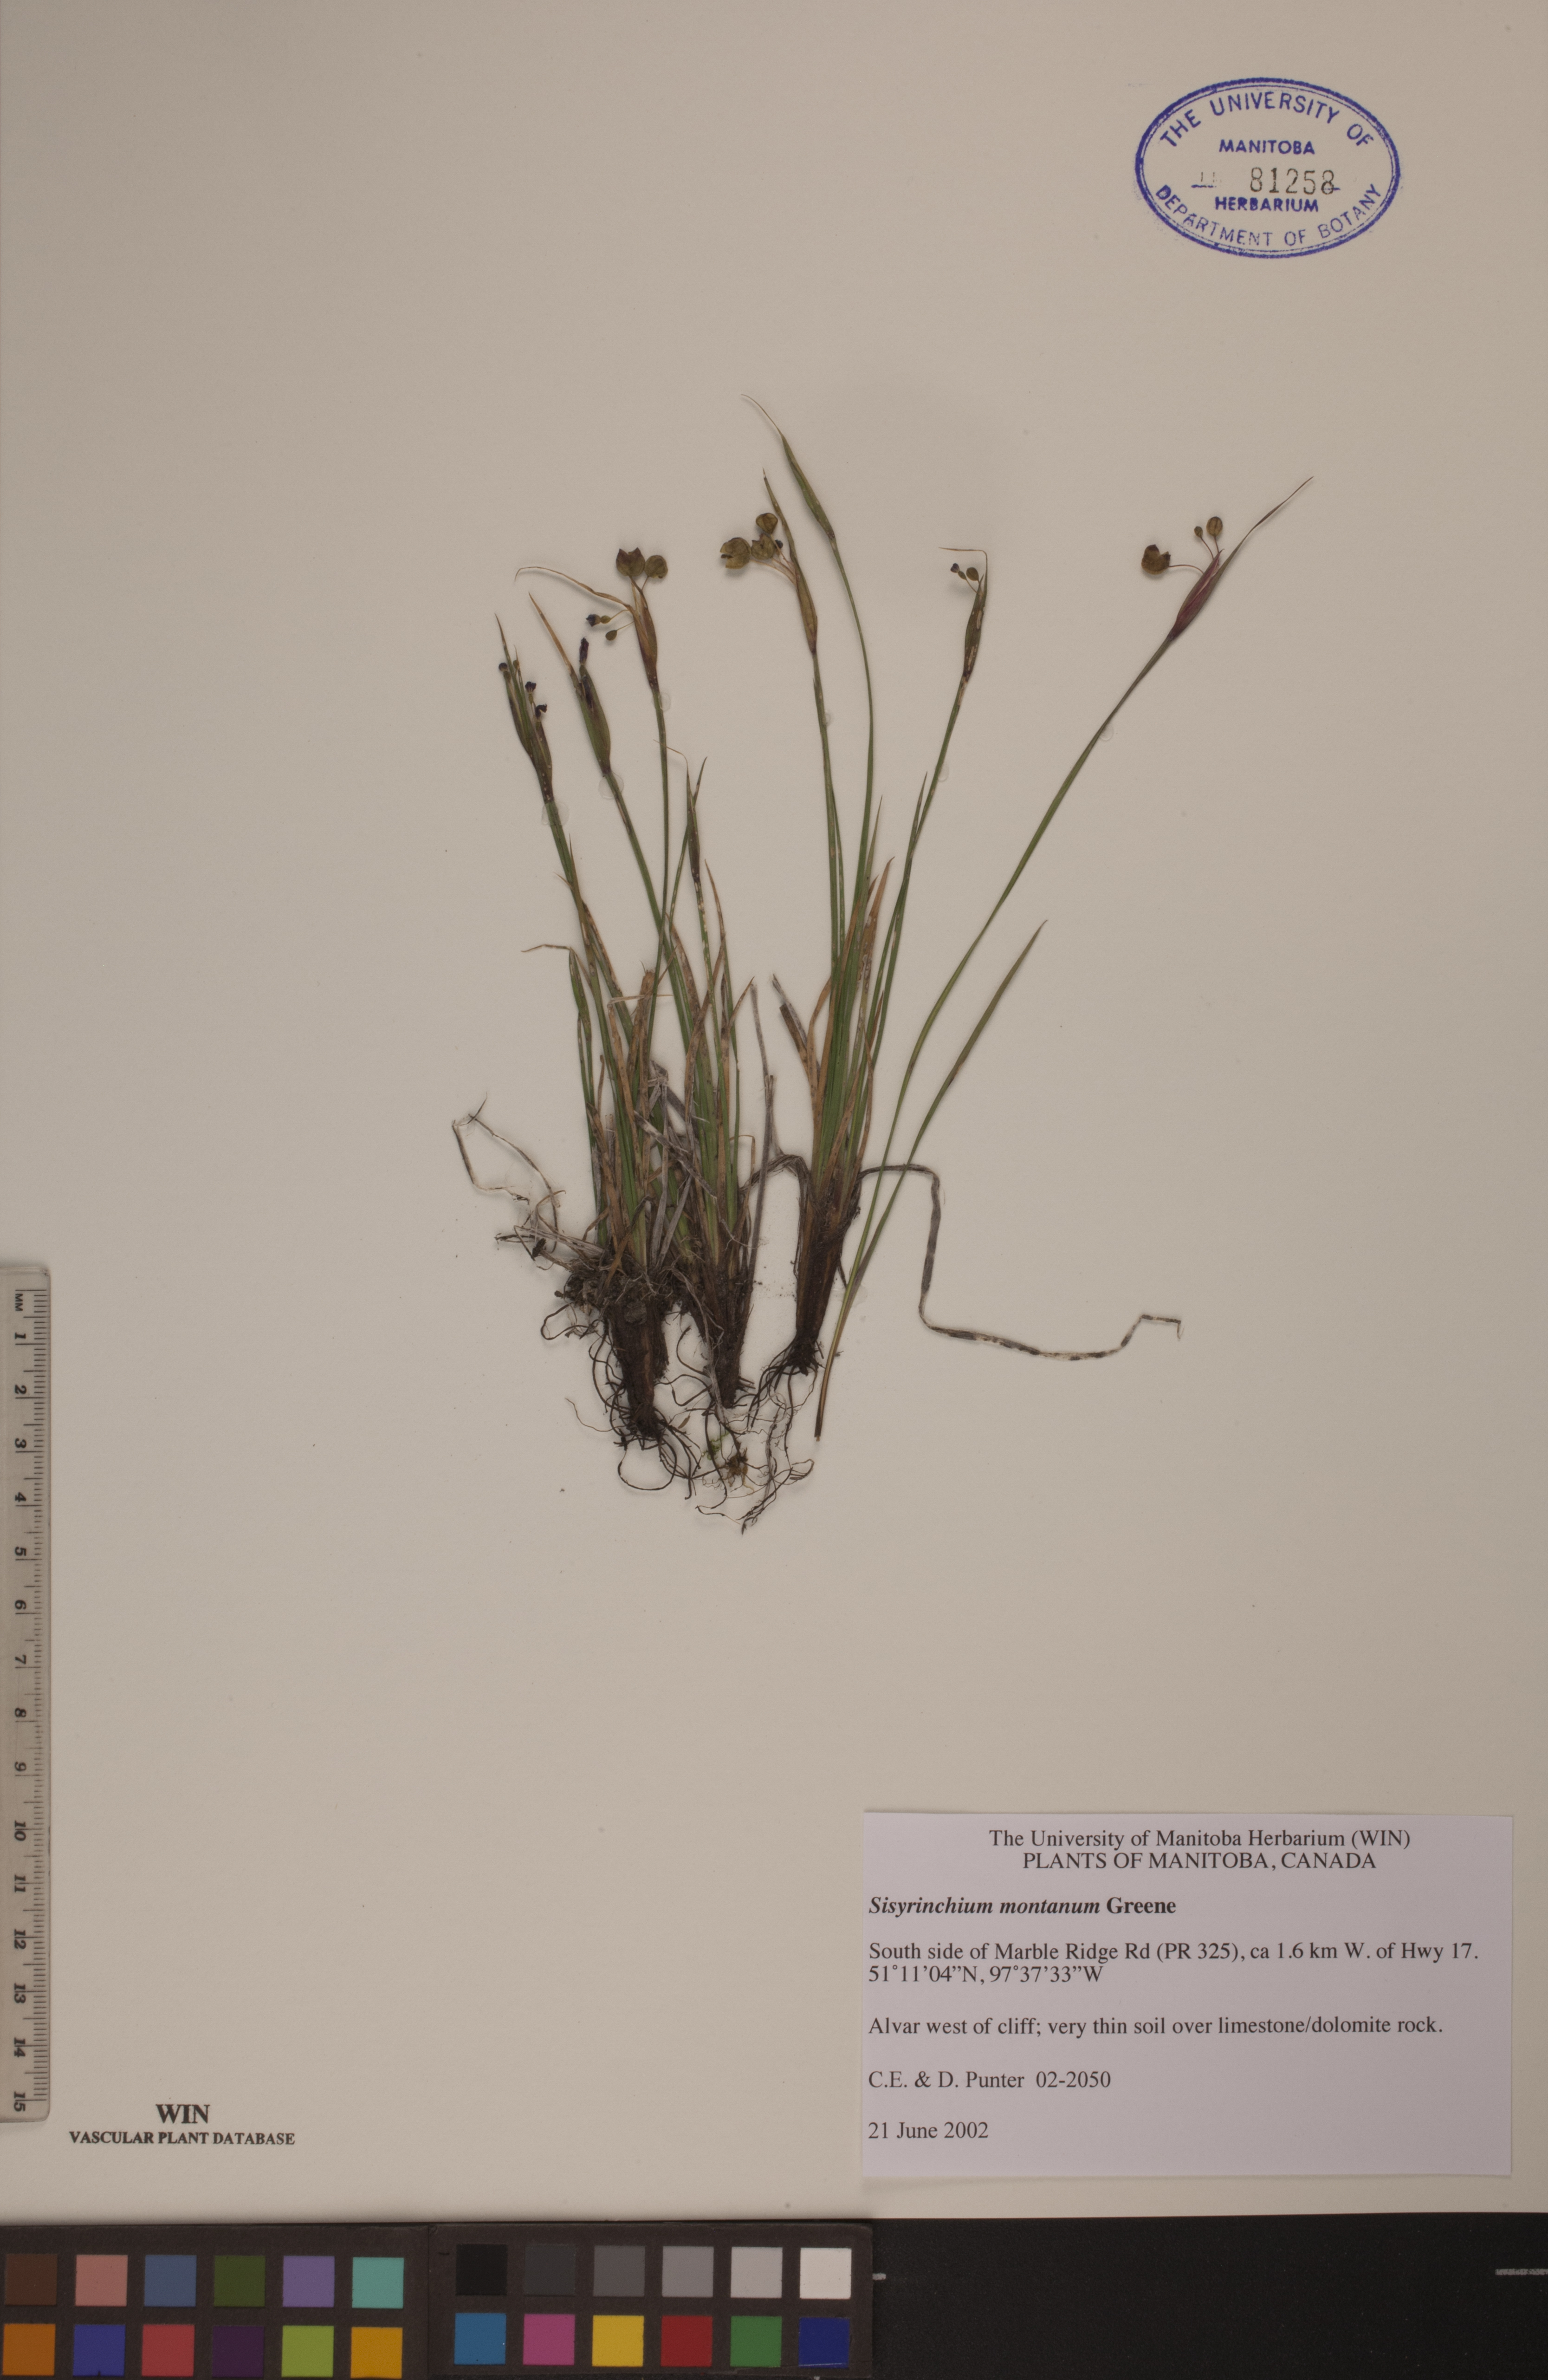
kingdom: Plantae
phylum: Tracheophyta
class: Liliopsida
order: Asparagales
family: Iridaceae
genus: Sisyrinchium
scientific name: Sisyrinchium montanum
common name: American blue-eyed-grass
